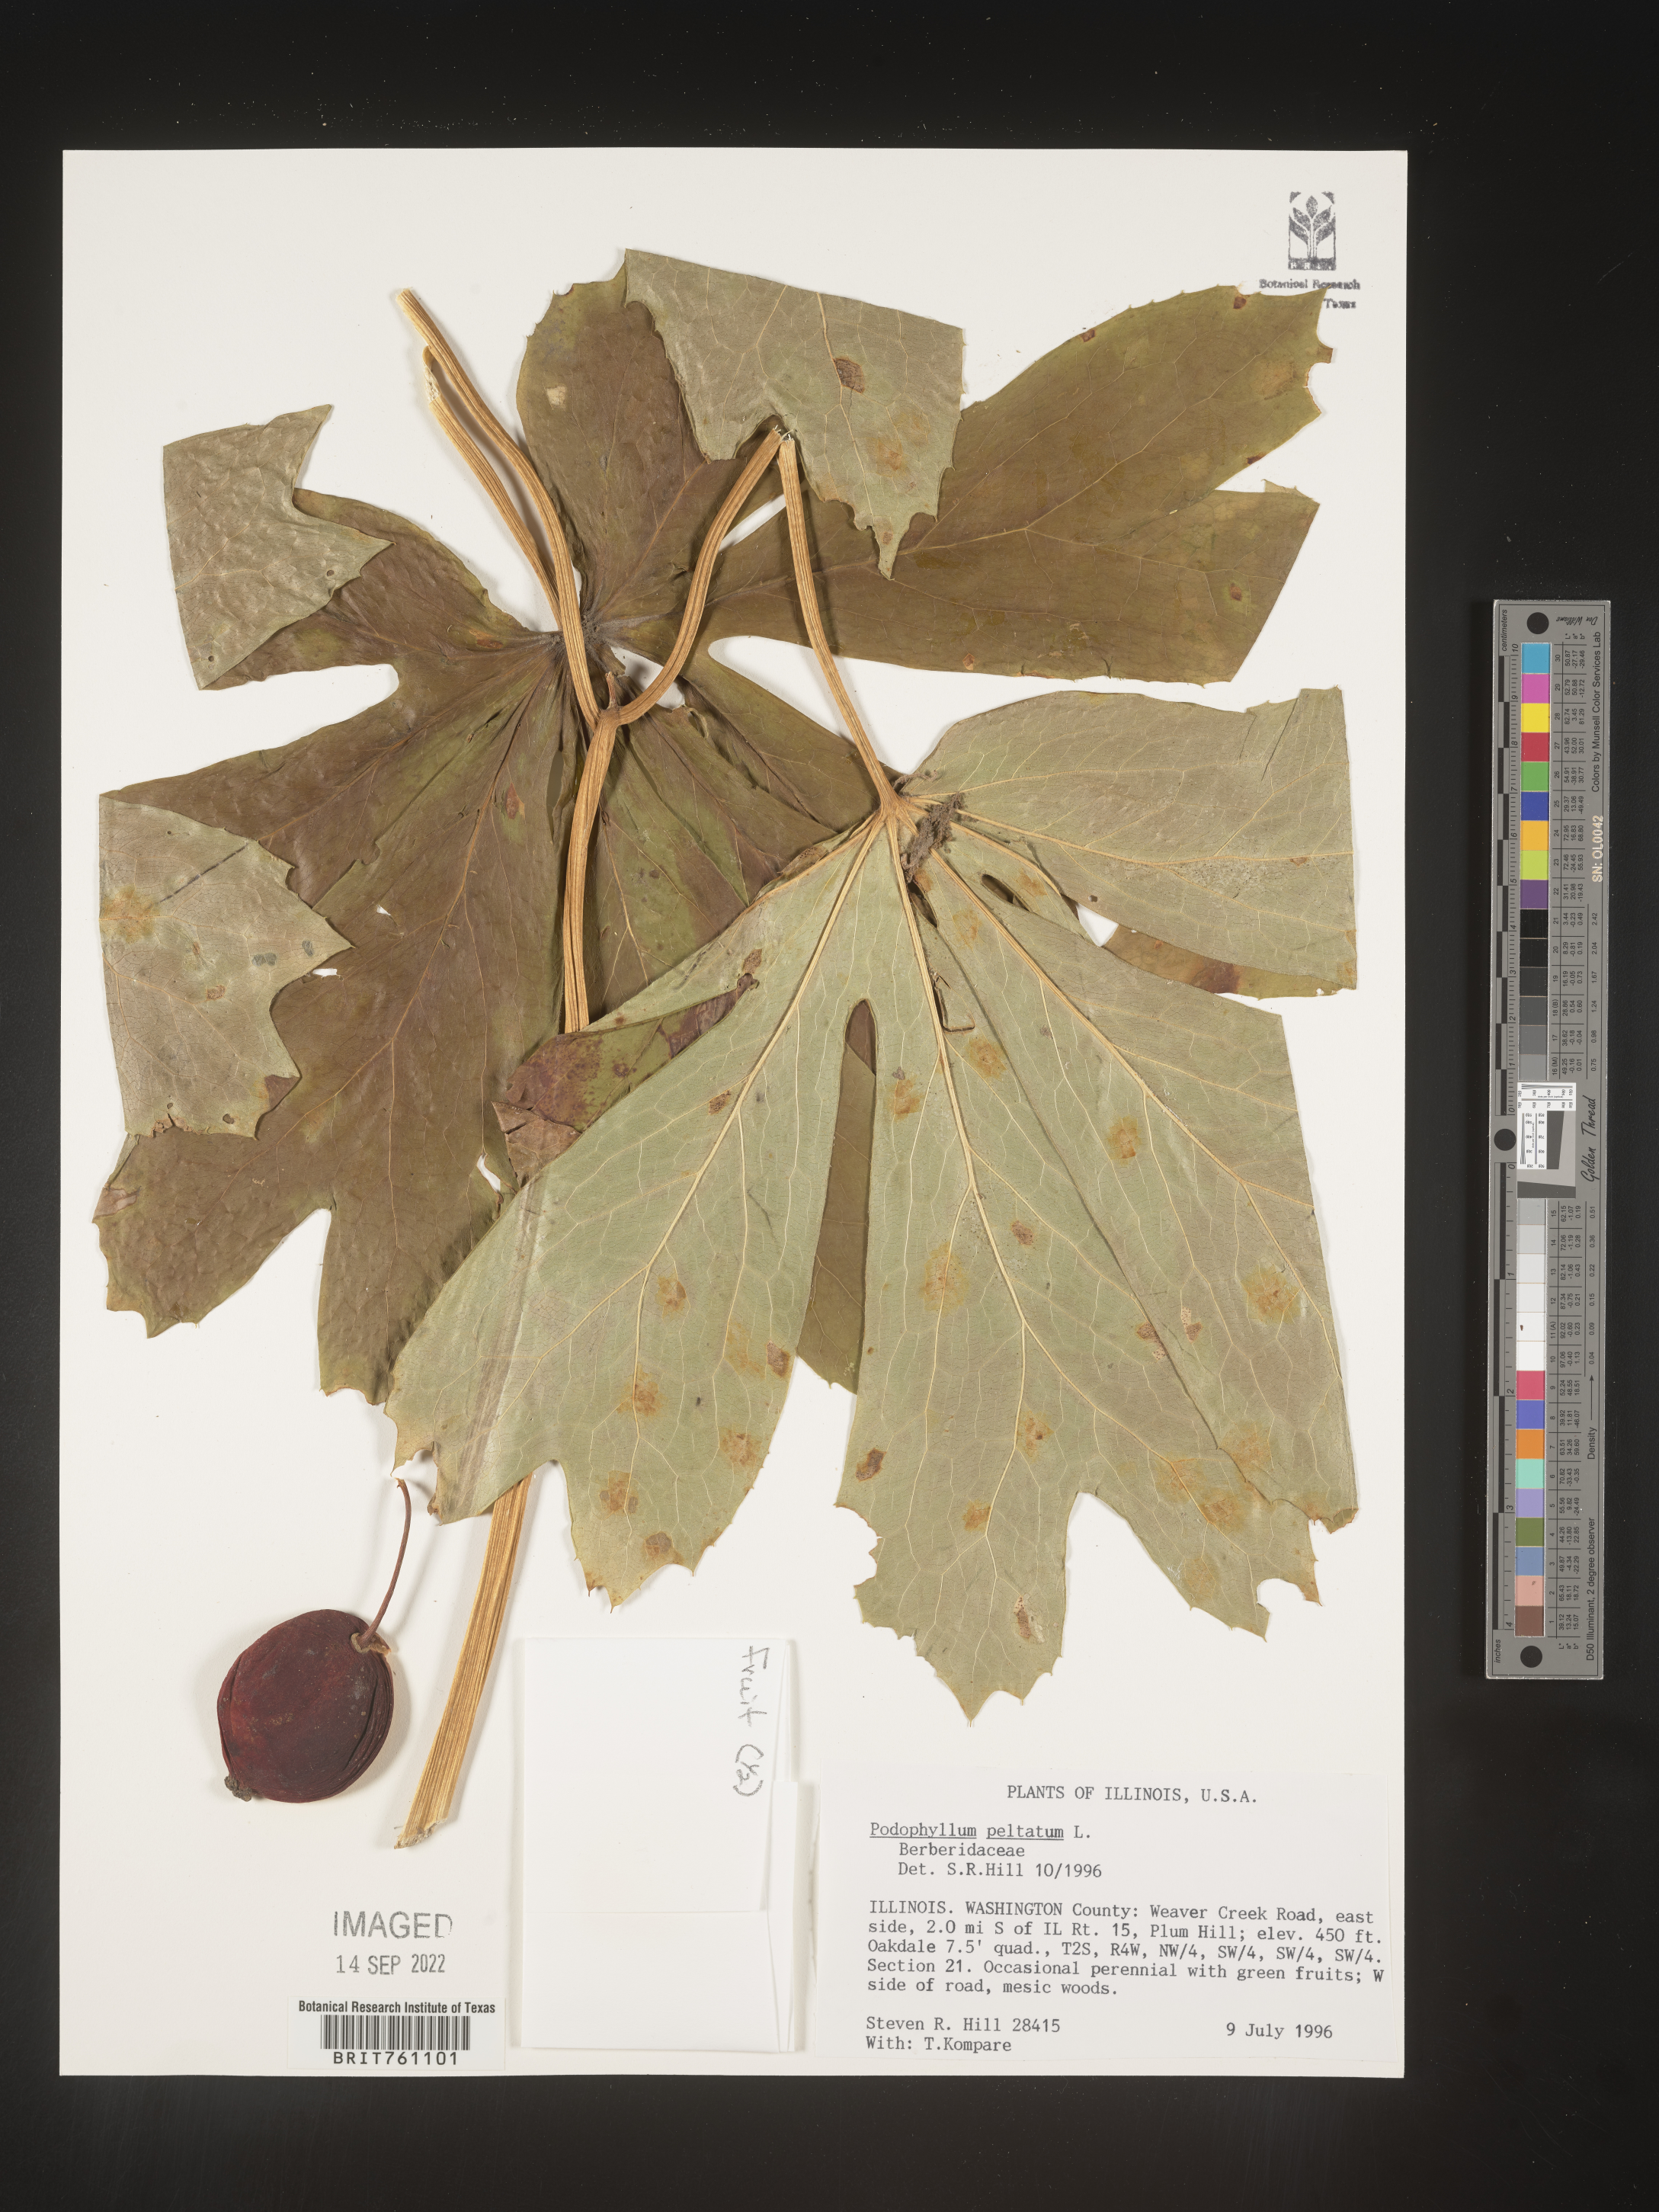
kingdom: Plantae
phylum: Tracheophyta
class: Magnoliopsida
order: Ranunculales
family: Berberidaceae
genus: Podophyllum
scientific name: Podophyllum peltatum
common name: Wild mandrake
